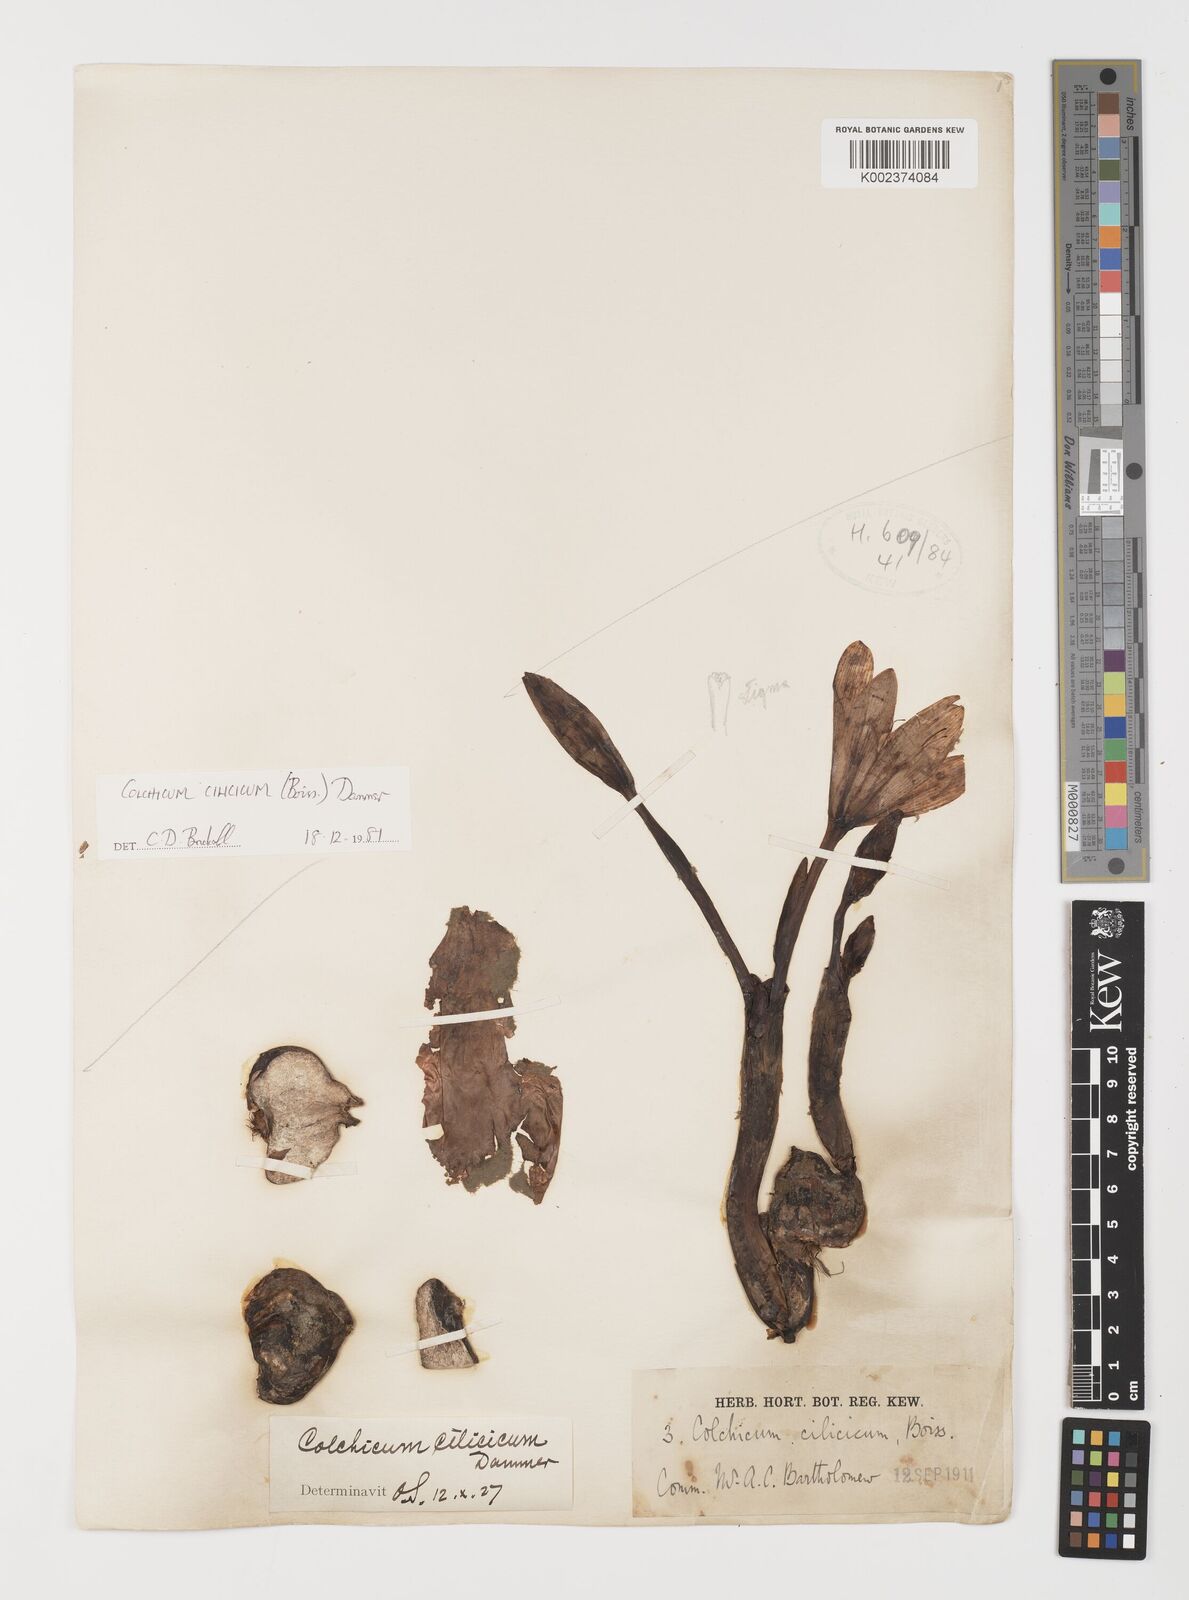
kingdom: Plantae
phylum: Tracheophyta
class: Liliopsida
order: Liliales
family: Colchicaceae
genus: Colchicum
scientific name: Colchicum cilicicum
